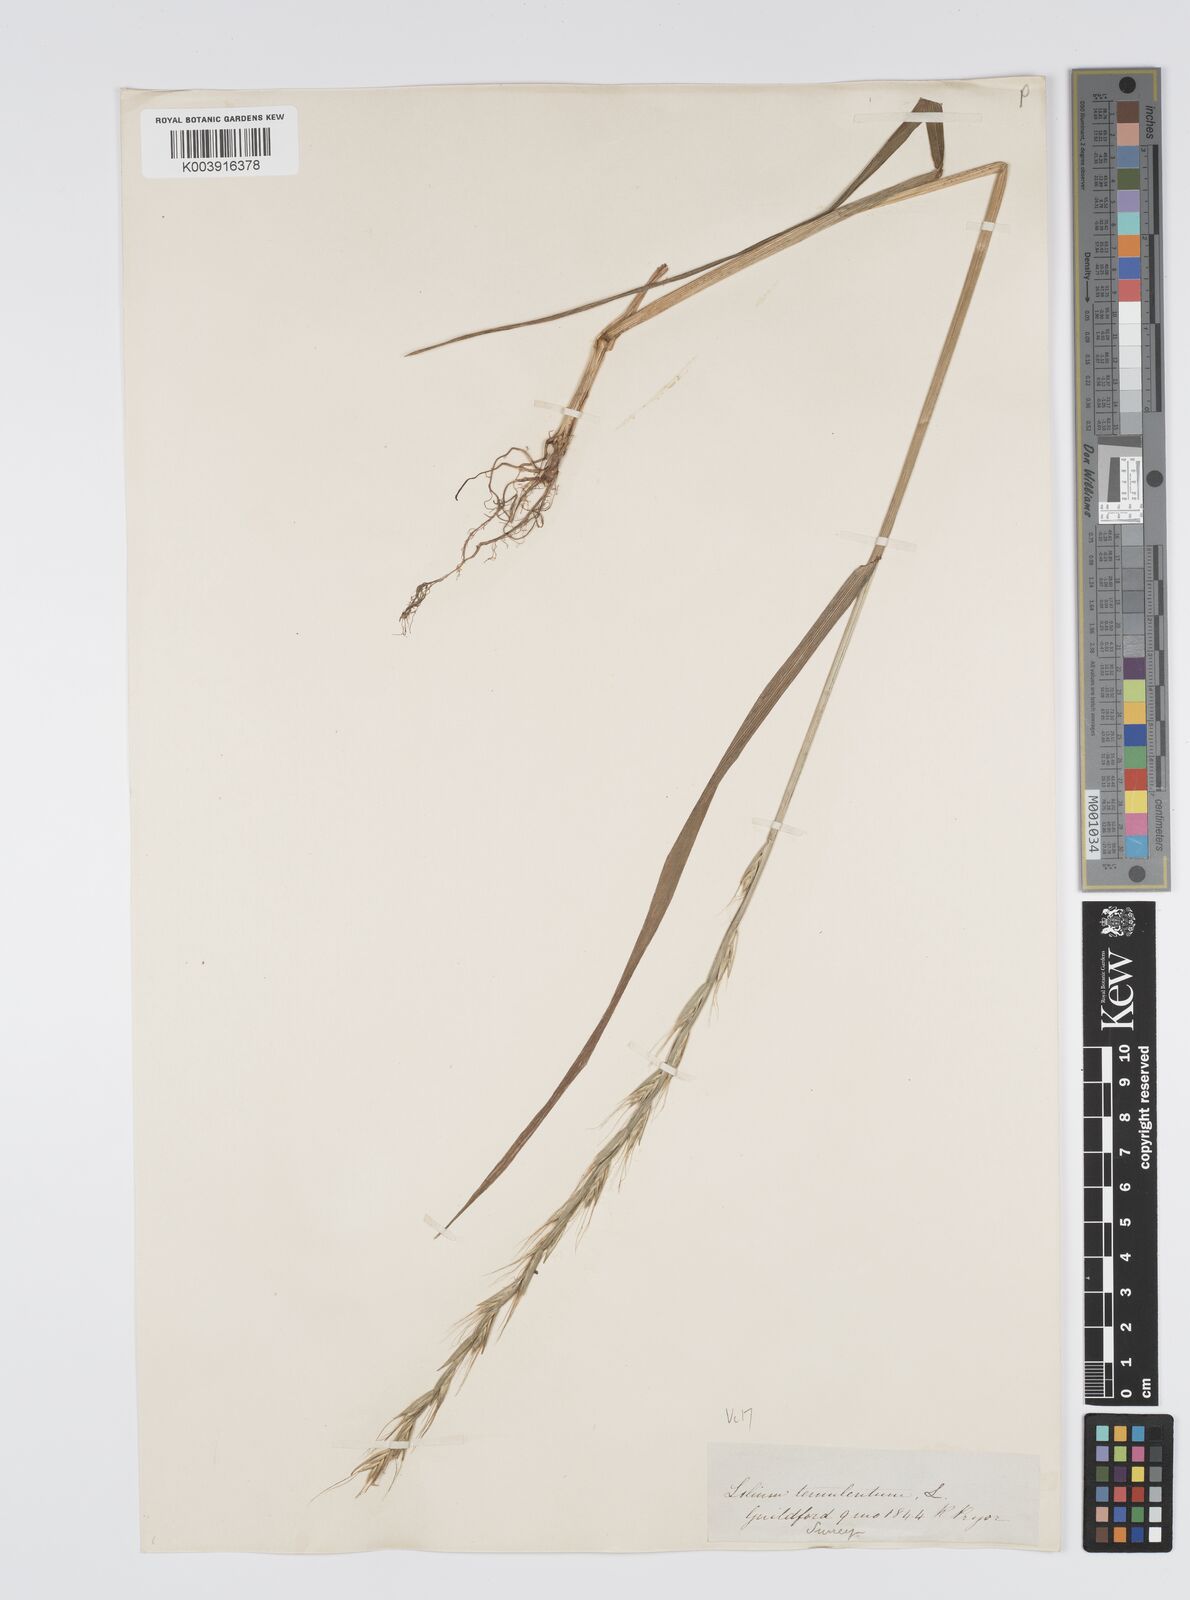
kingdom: Plantae
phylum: Tracheophyta
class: Liliopsida
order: Poales
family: Poaceae
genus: Lolium
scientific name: Lolium temulentum
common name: Darnel
